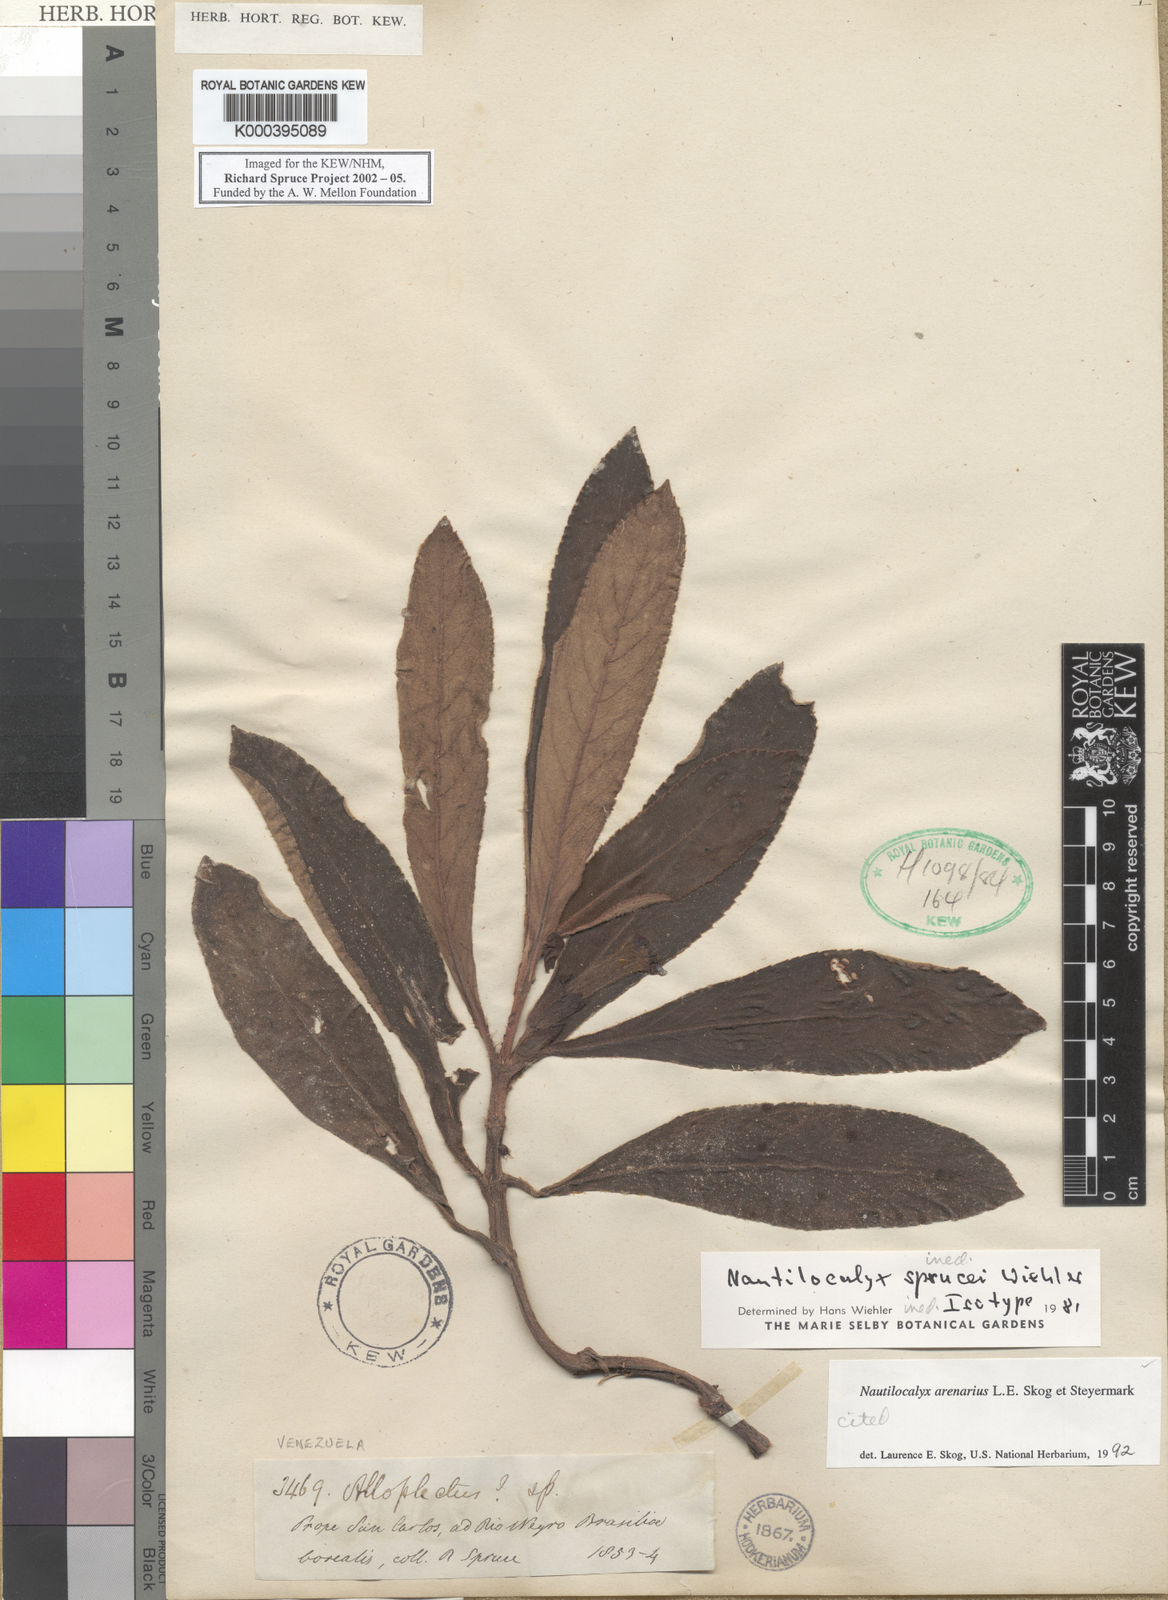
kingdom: Plantae
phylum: Tracheophyta
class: Magnoliopsida
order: Lamiales
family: Gesneriaceae
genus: Nautilocalyx
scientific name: Nautilocalyx arenarius
